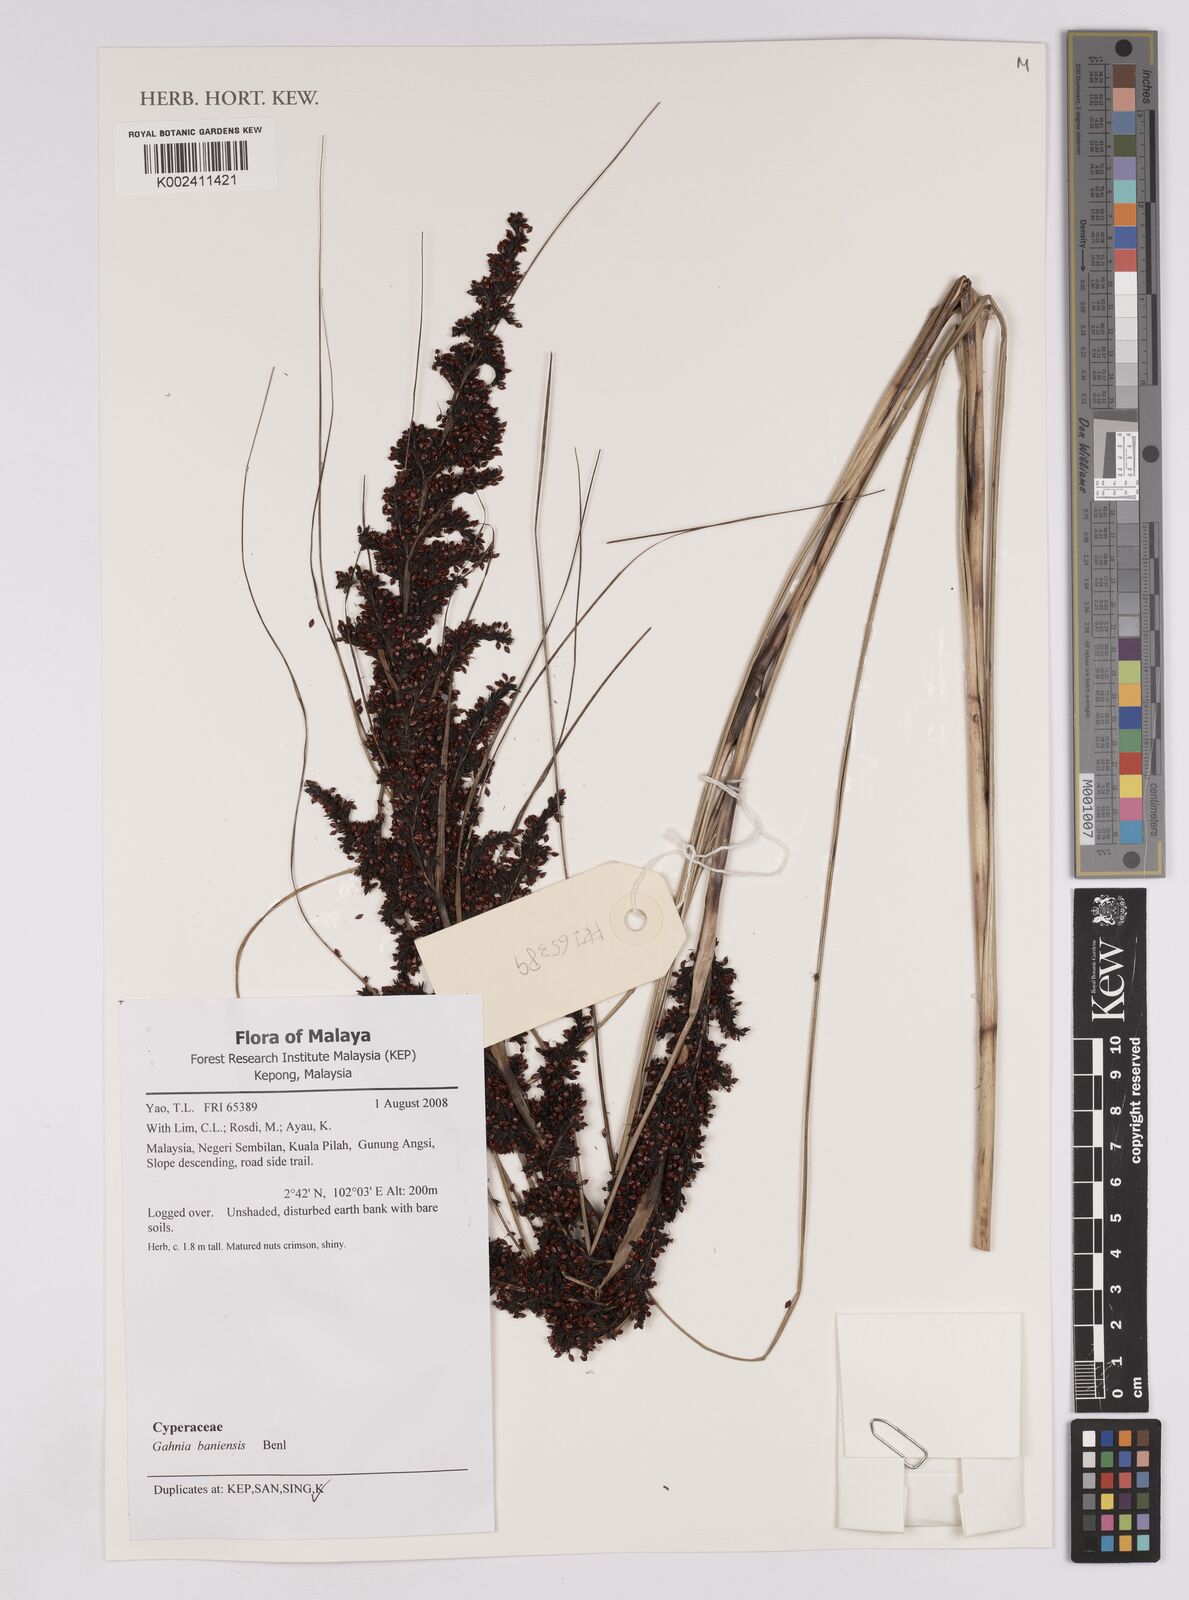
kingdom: Plantae
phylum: Tracheophyta
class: Liliopsida
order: Poales
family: Cyperaceae
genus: Gahnia
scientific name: Gahnia baniensis
